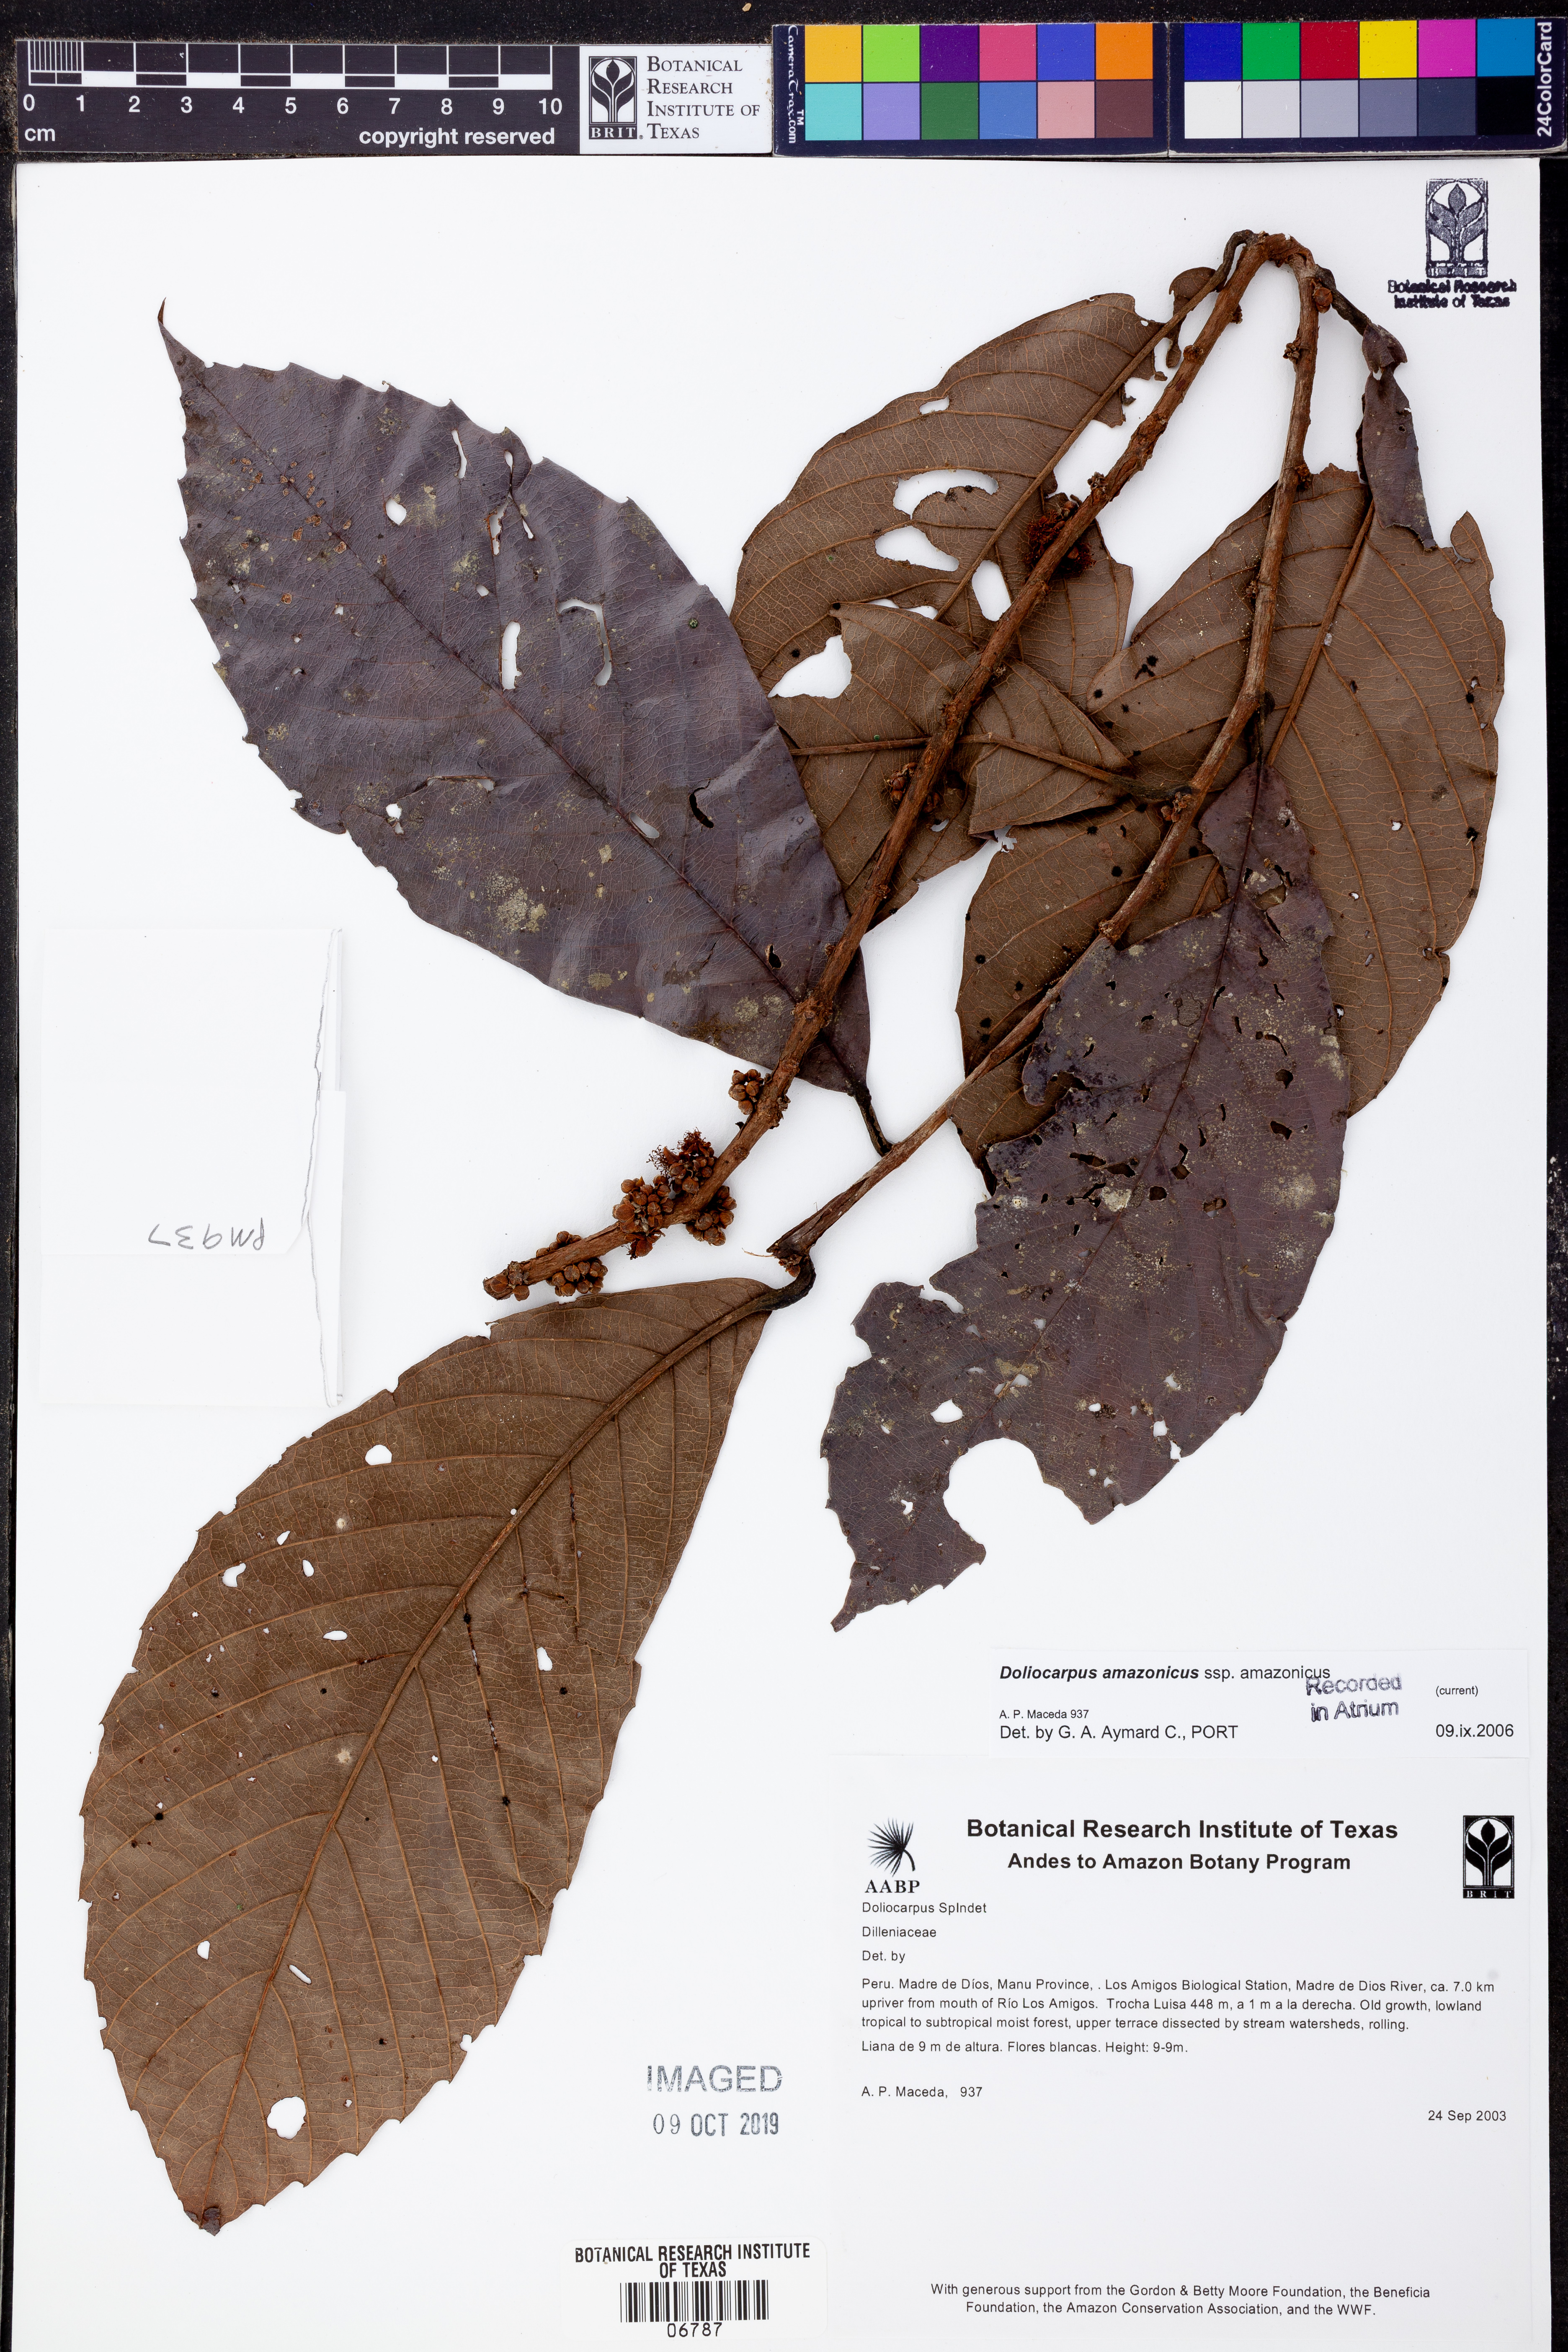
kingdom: Plantae
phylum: Tracheophyta
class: Magnoliopsida
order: Dilleniales
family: Dilleniaceae
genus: Doliocarpus
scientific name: Doliocarpus
